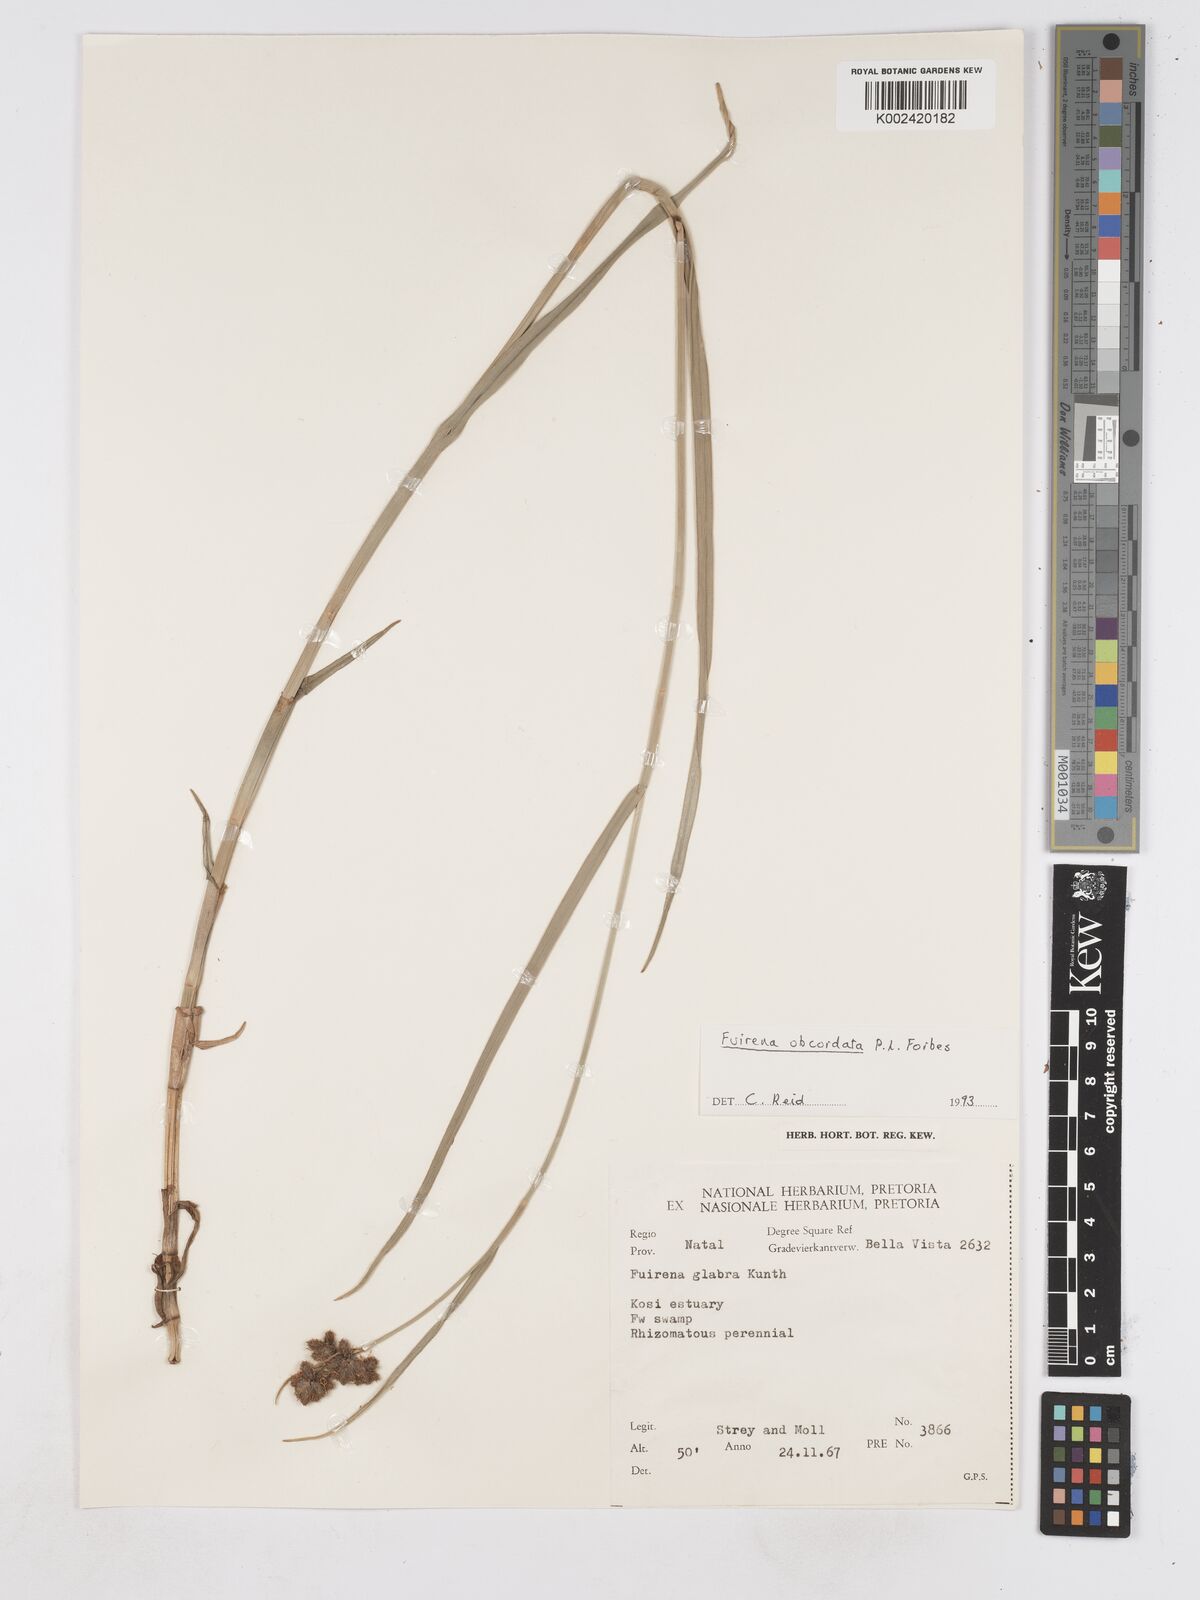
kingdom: Plantae
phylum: Tracheophyta
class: Liliopsida
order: Poales
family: Cyperaceae
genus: Fuirena
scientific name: Fuirena obcordata
